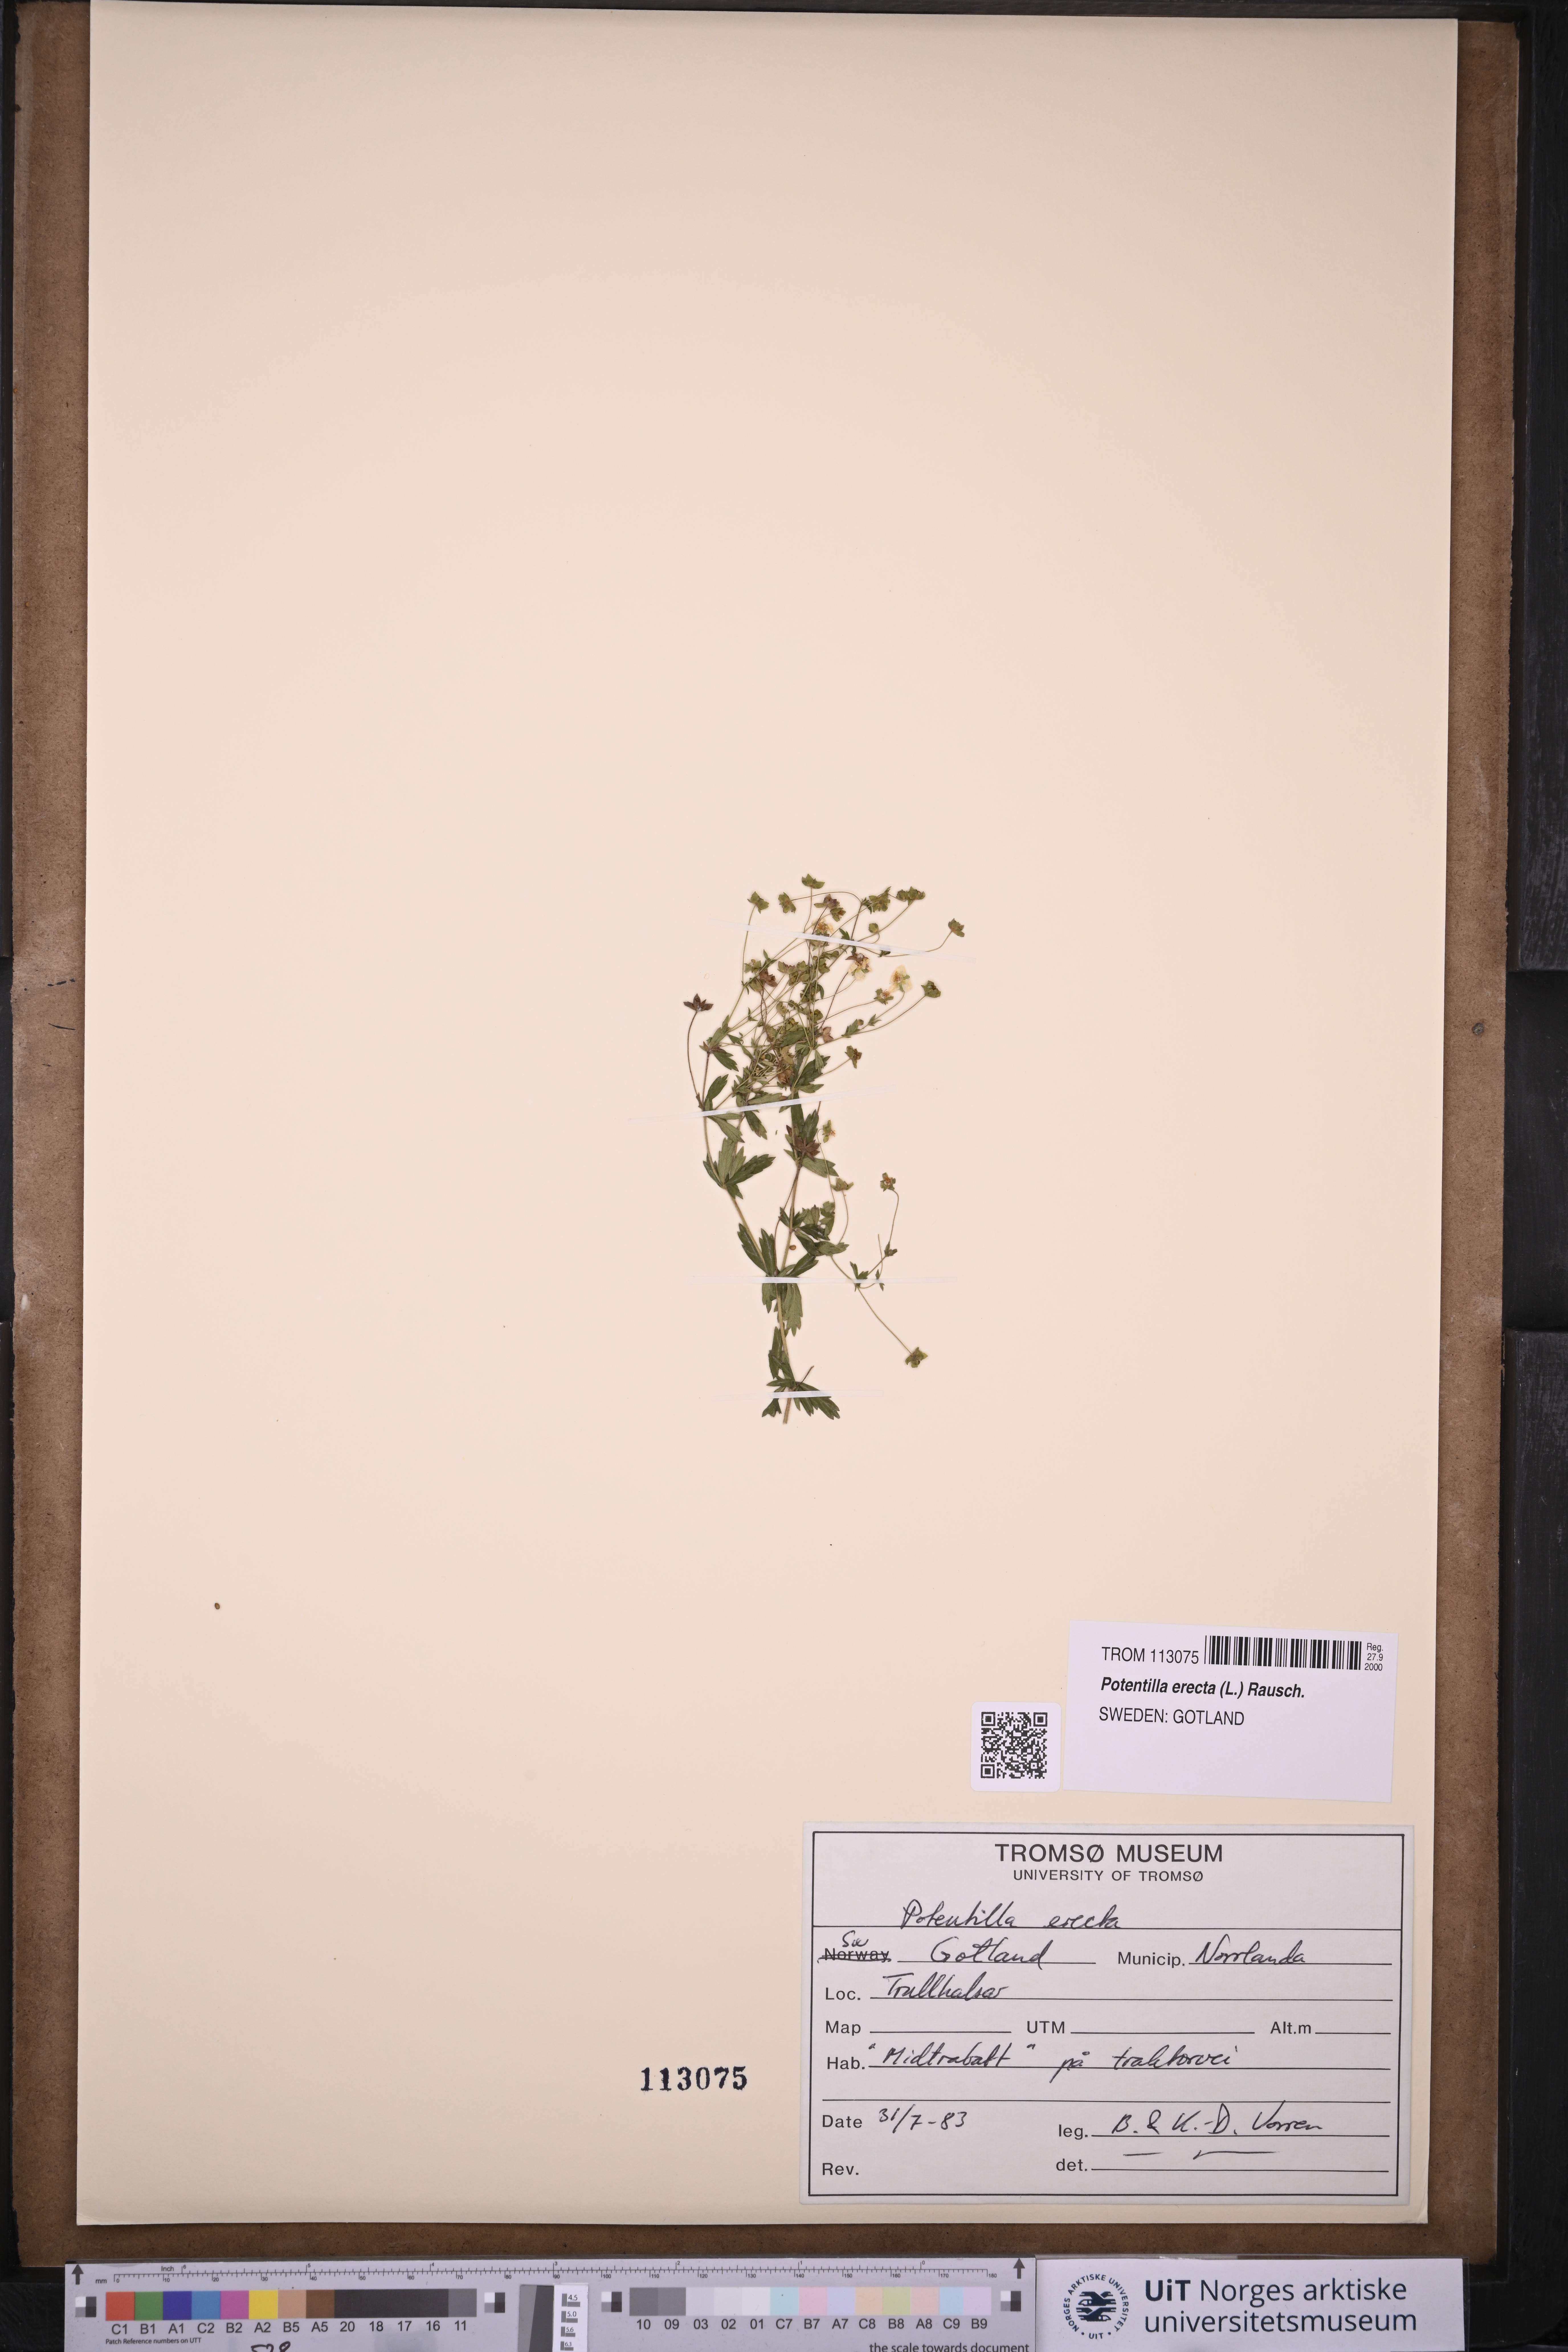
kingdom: Plantae
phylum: Tracheophyta
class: Magnoliopsida
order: Rosales
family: Rosaceae
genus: Potentilla
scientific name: Potentilla erecta
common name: Tormentil
